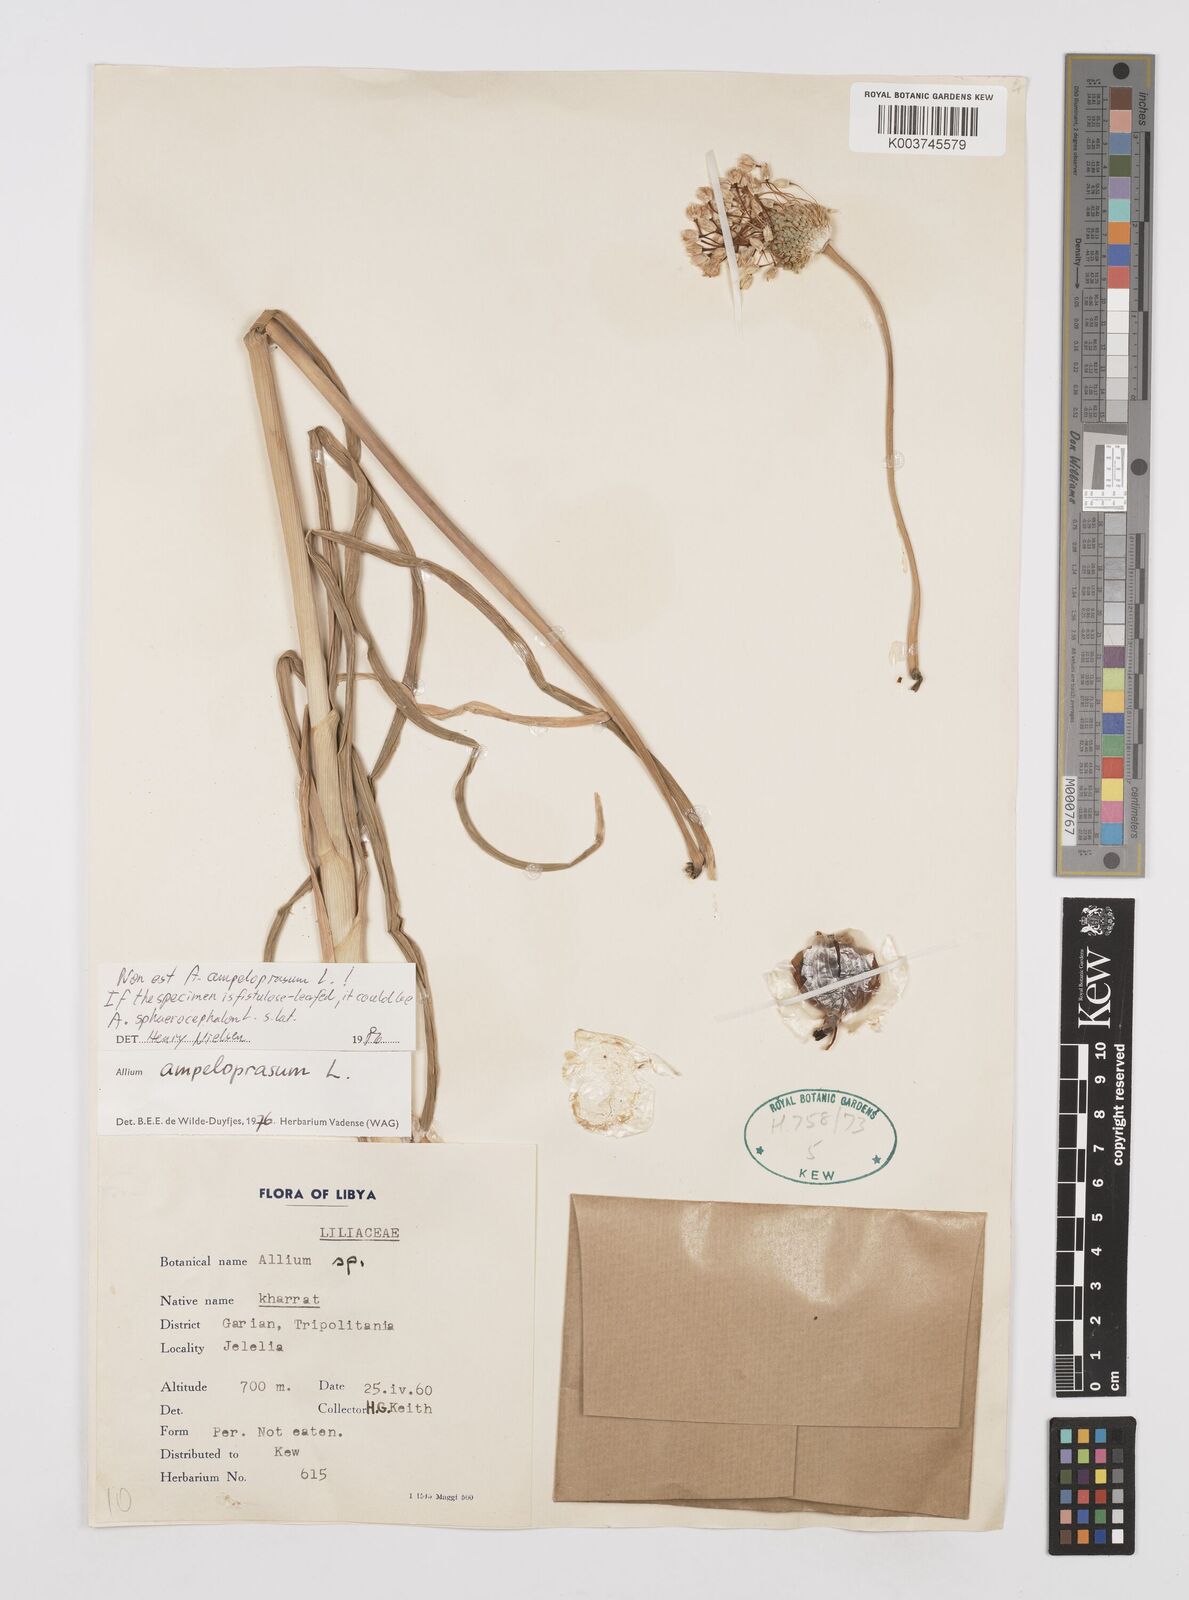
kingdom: Plantae
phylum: Tracheophyta
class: Liliopsida
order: Asparagales
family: Amaryllidaceae
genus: Allium
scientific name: Allium
